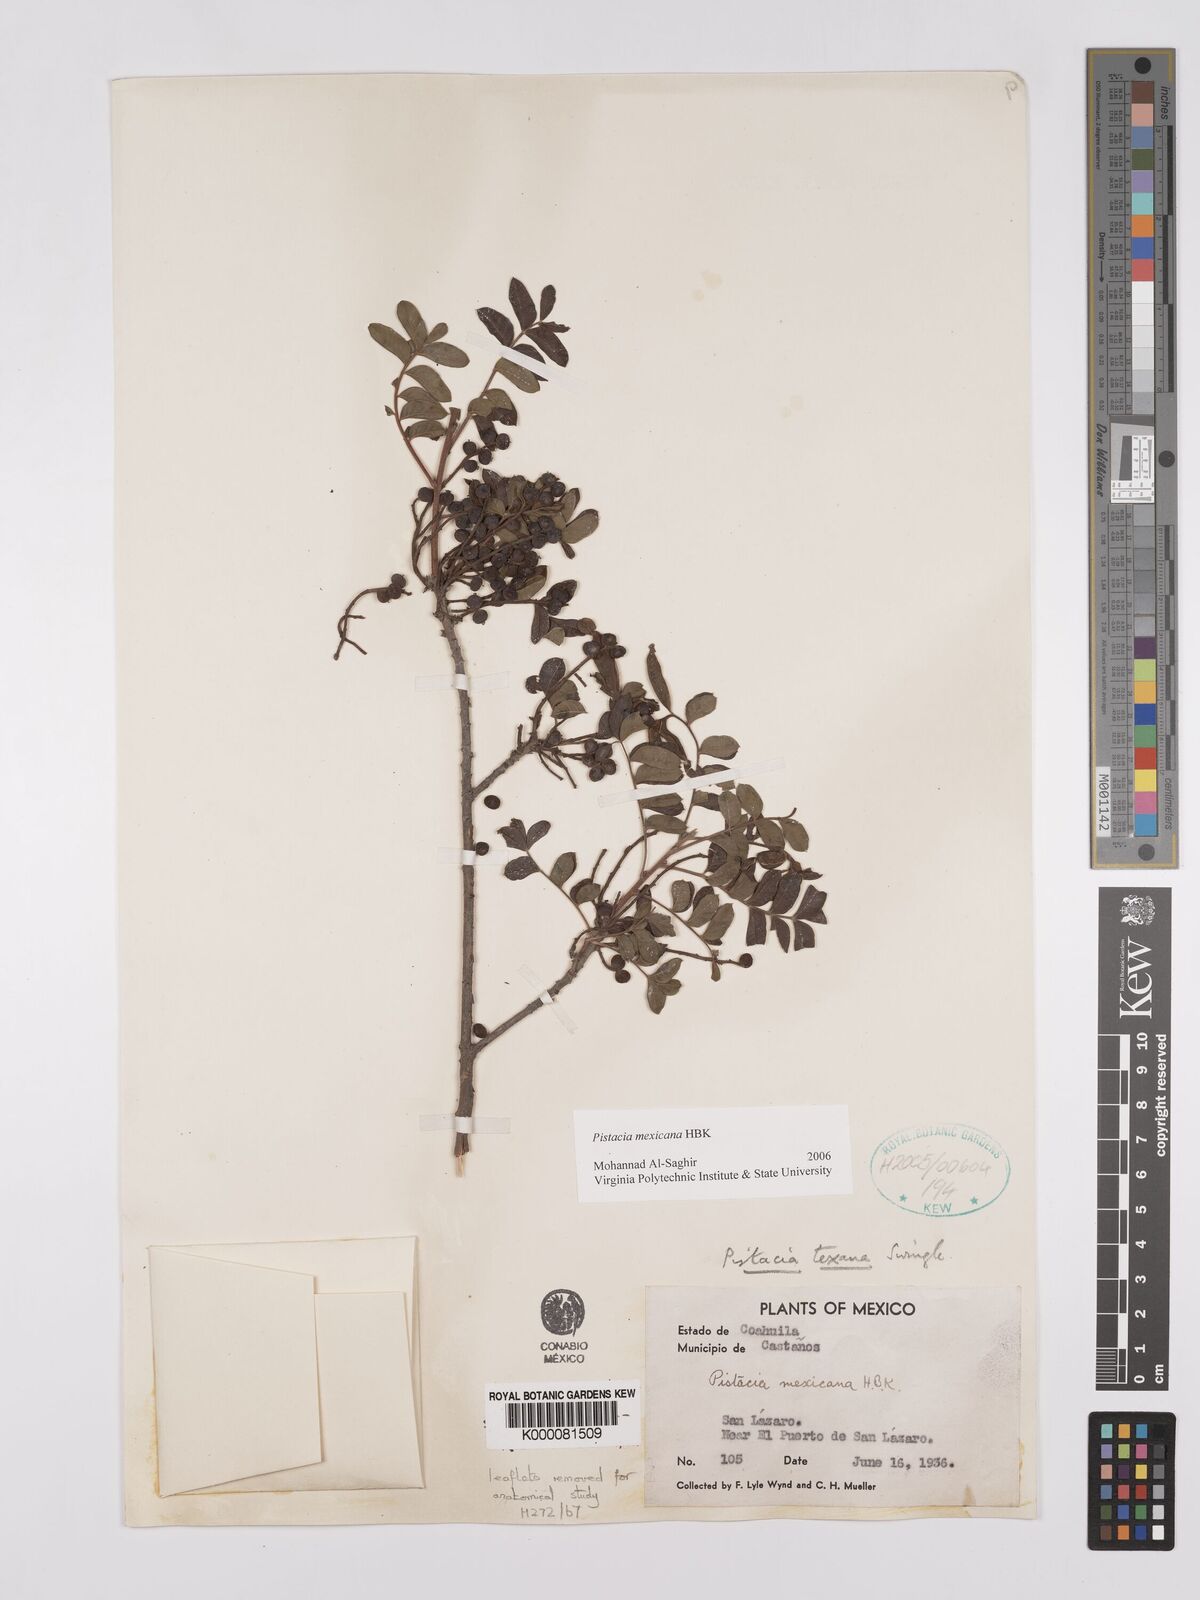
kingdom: Plantae
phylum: Tracheophyta
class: Magnoliopsida
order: Sapindales
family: Anacardiaceae
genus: Pistacia
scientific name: Pistacia
